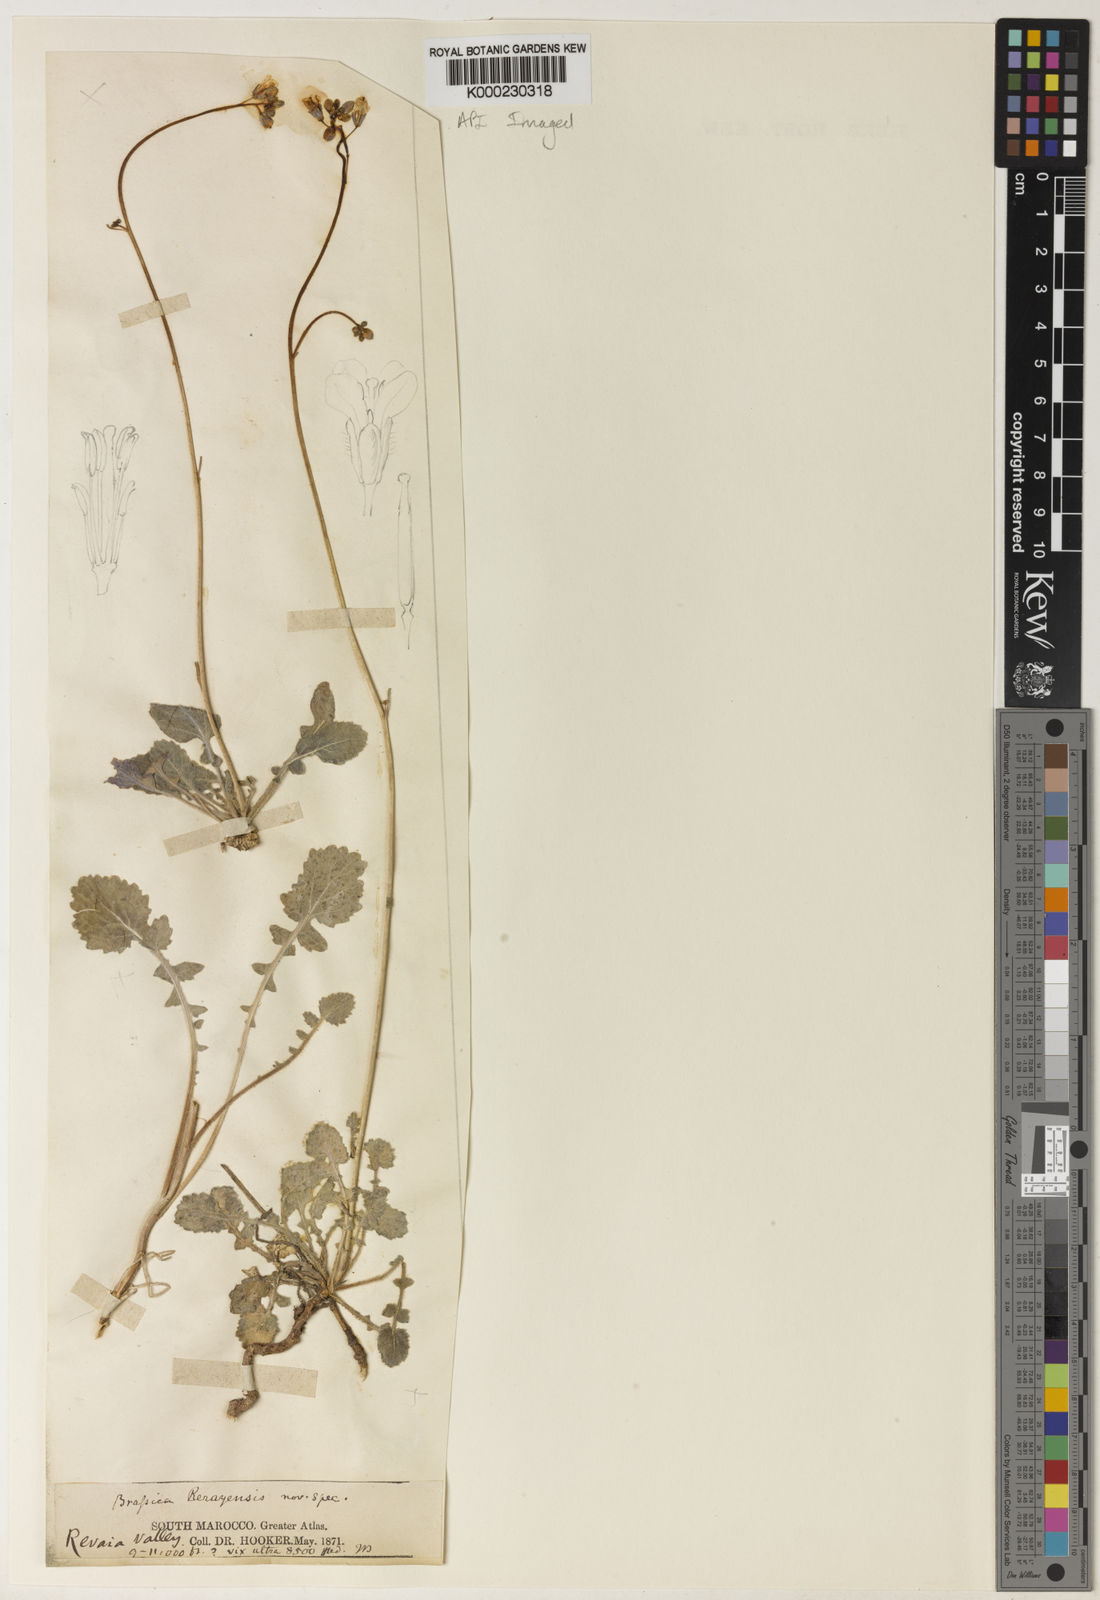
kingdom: Plantae
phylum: Tracheophyta
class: Magnoliopsida
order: Brassicales
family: Brassicaceae
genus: Erucastrum
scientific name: Erucastrum elatum
